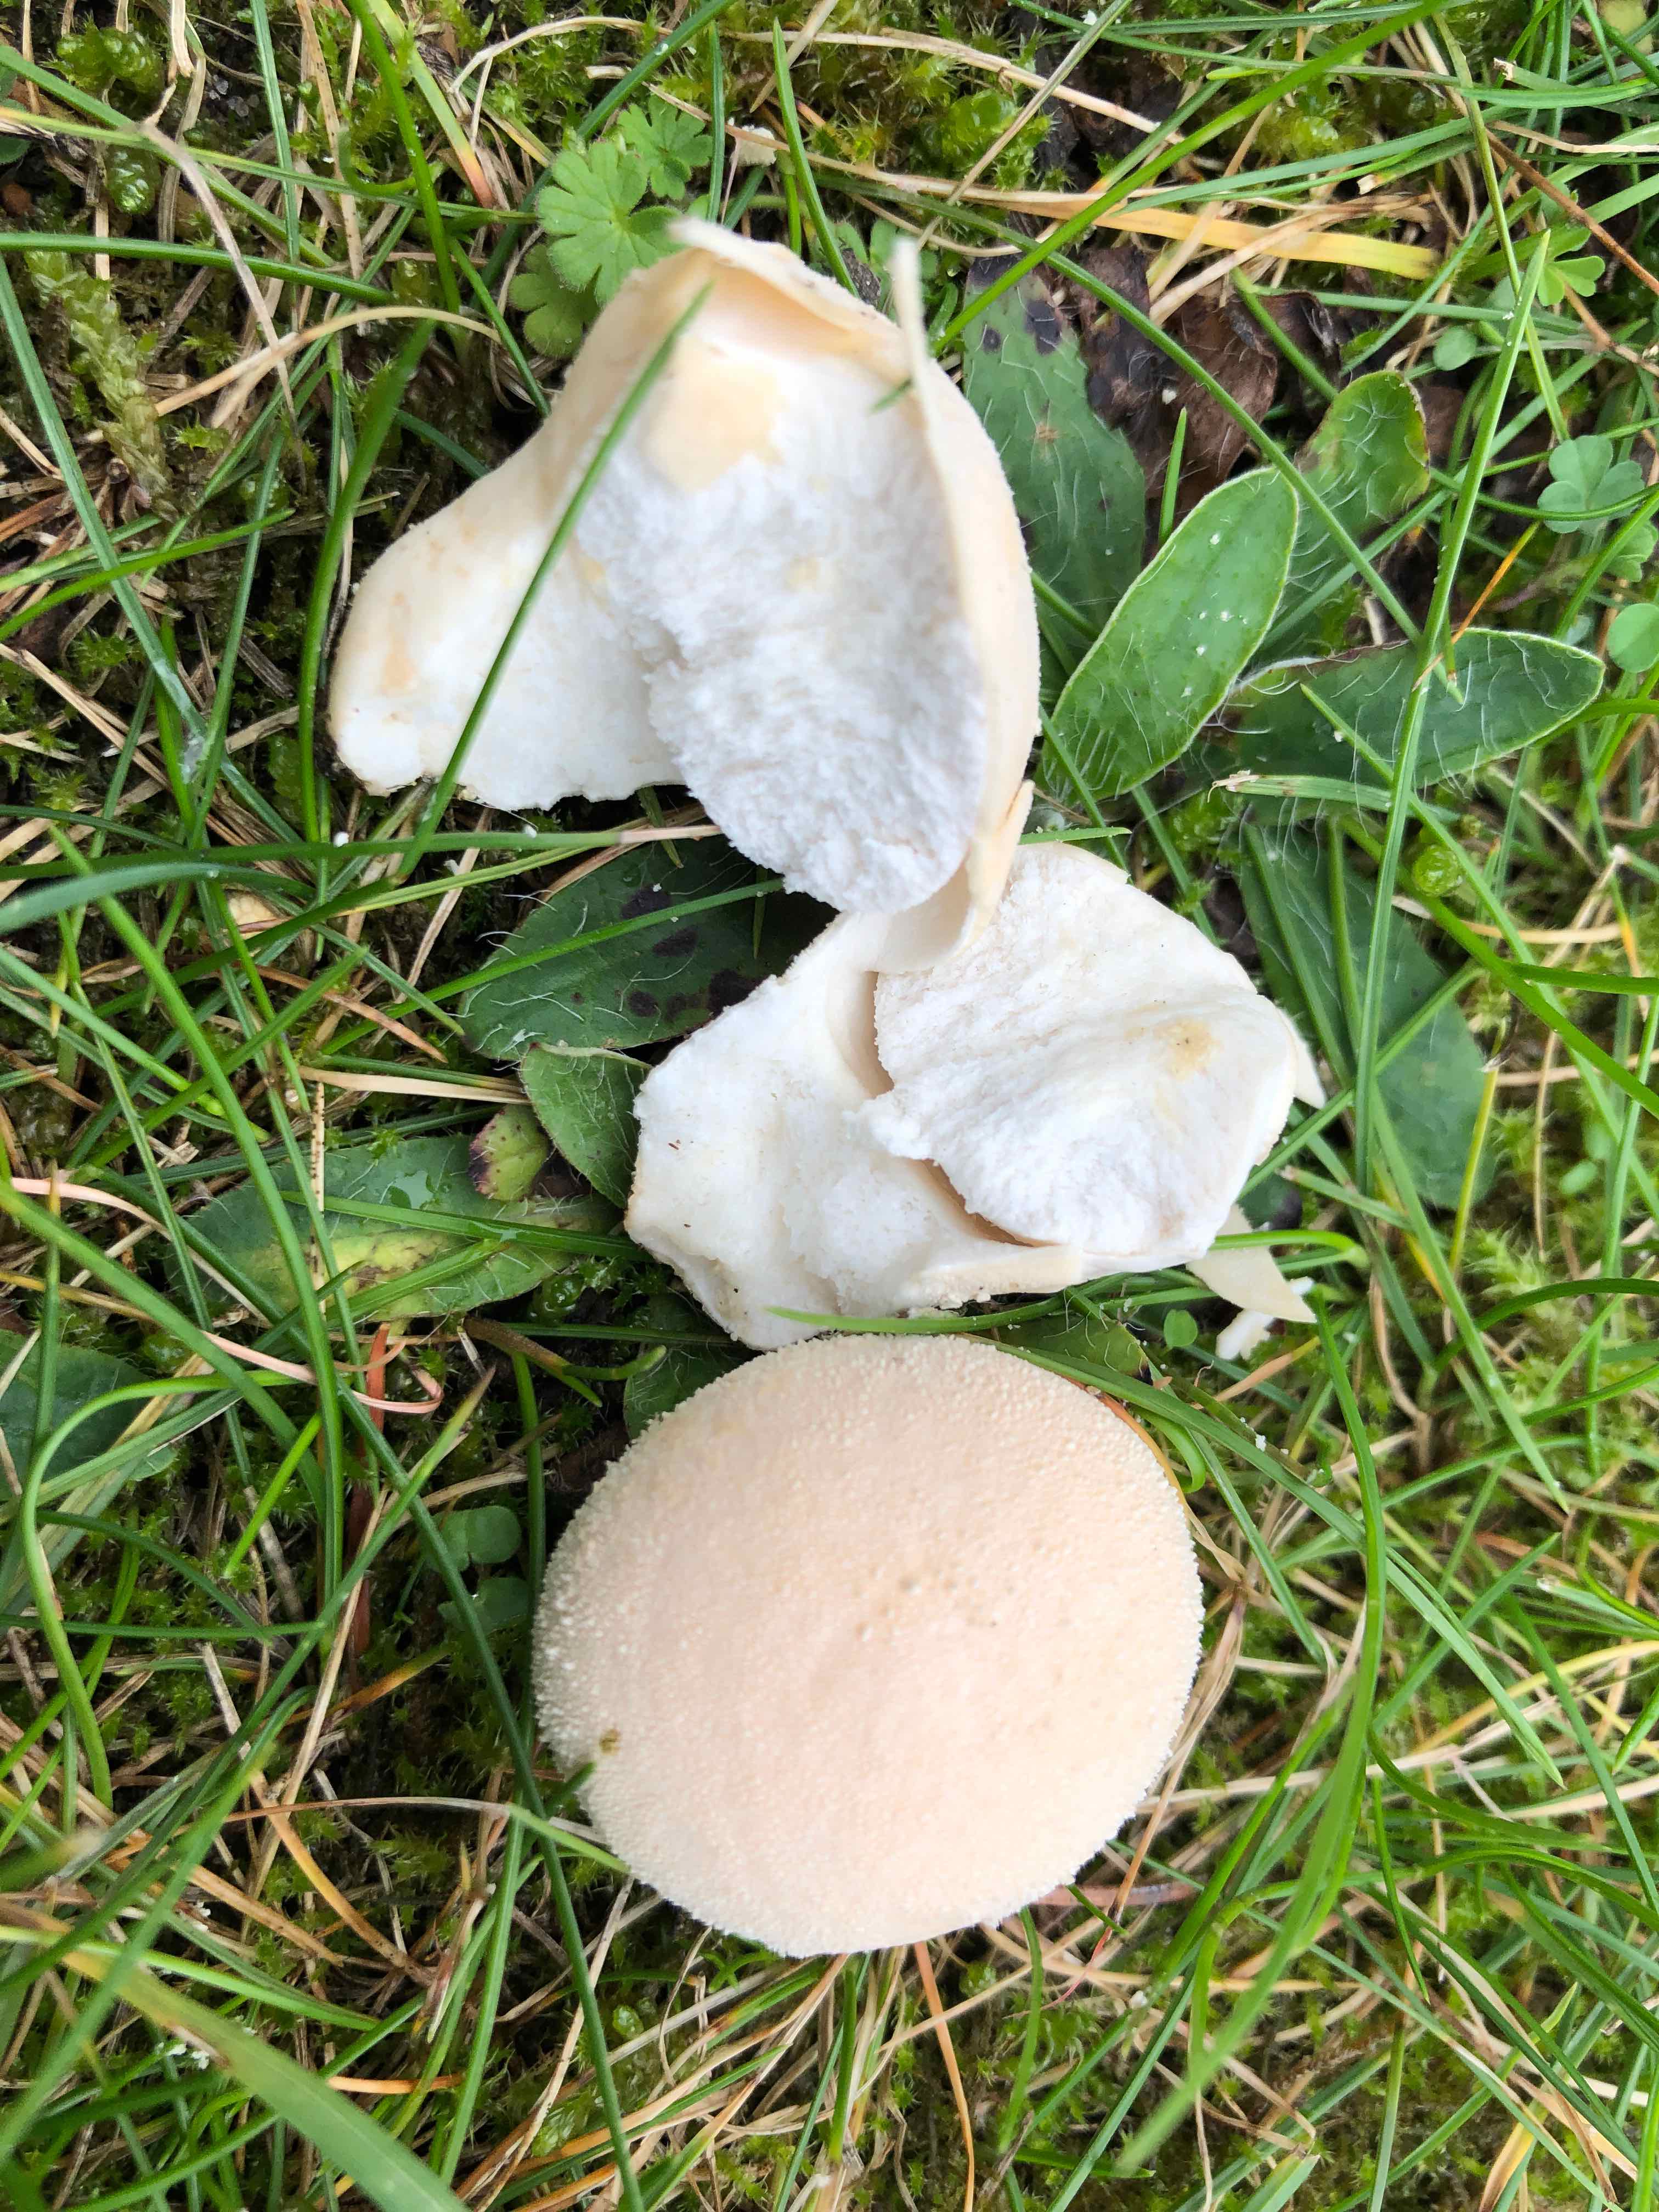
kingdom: Fungi
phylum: Basidiomycota
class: Agaricomycetes
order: Agaricales
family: Lycoperdaceae
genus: Lycoperdon
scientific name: Lycoperdon pratense
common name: flad støvbold
